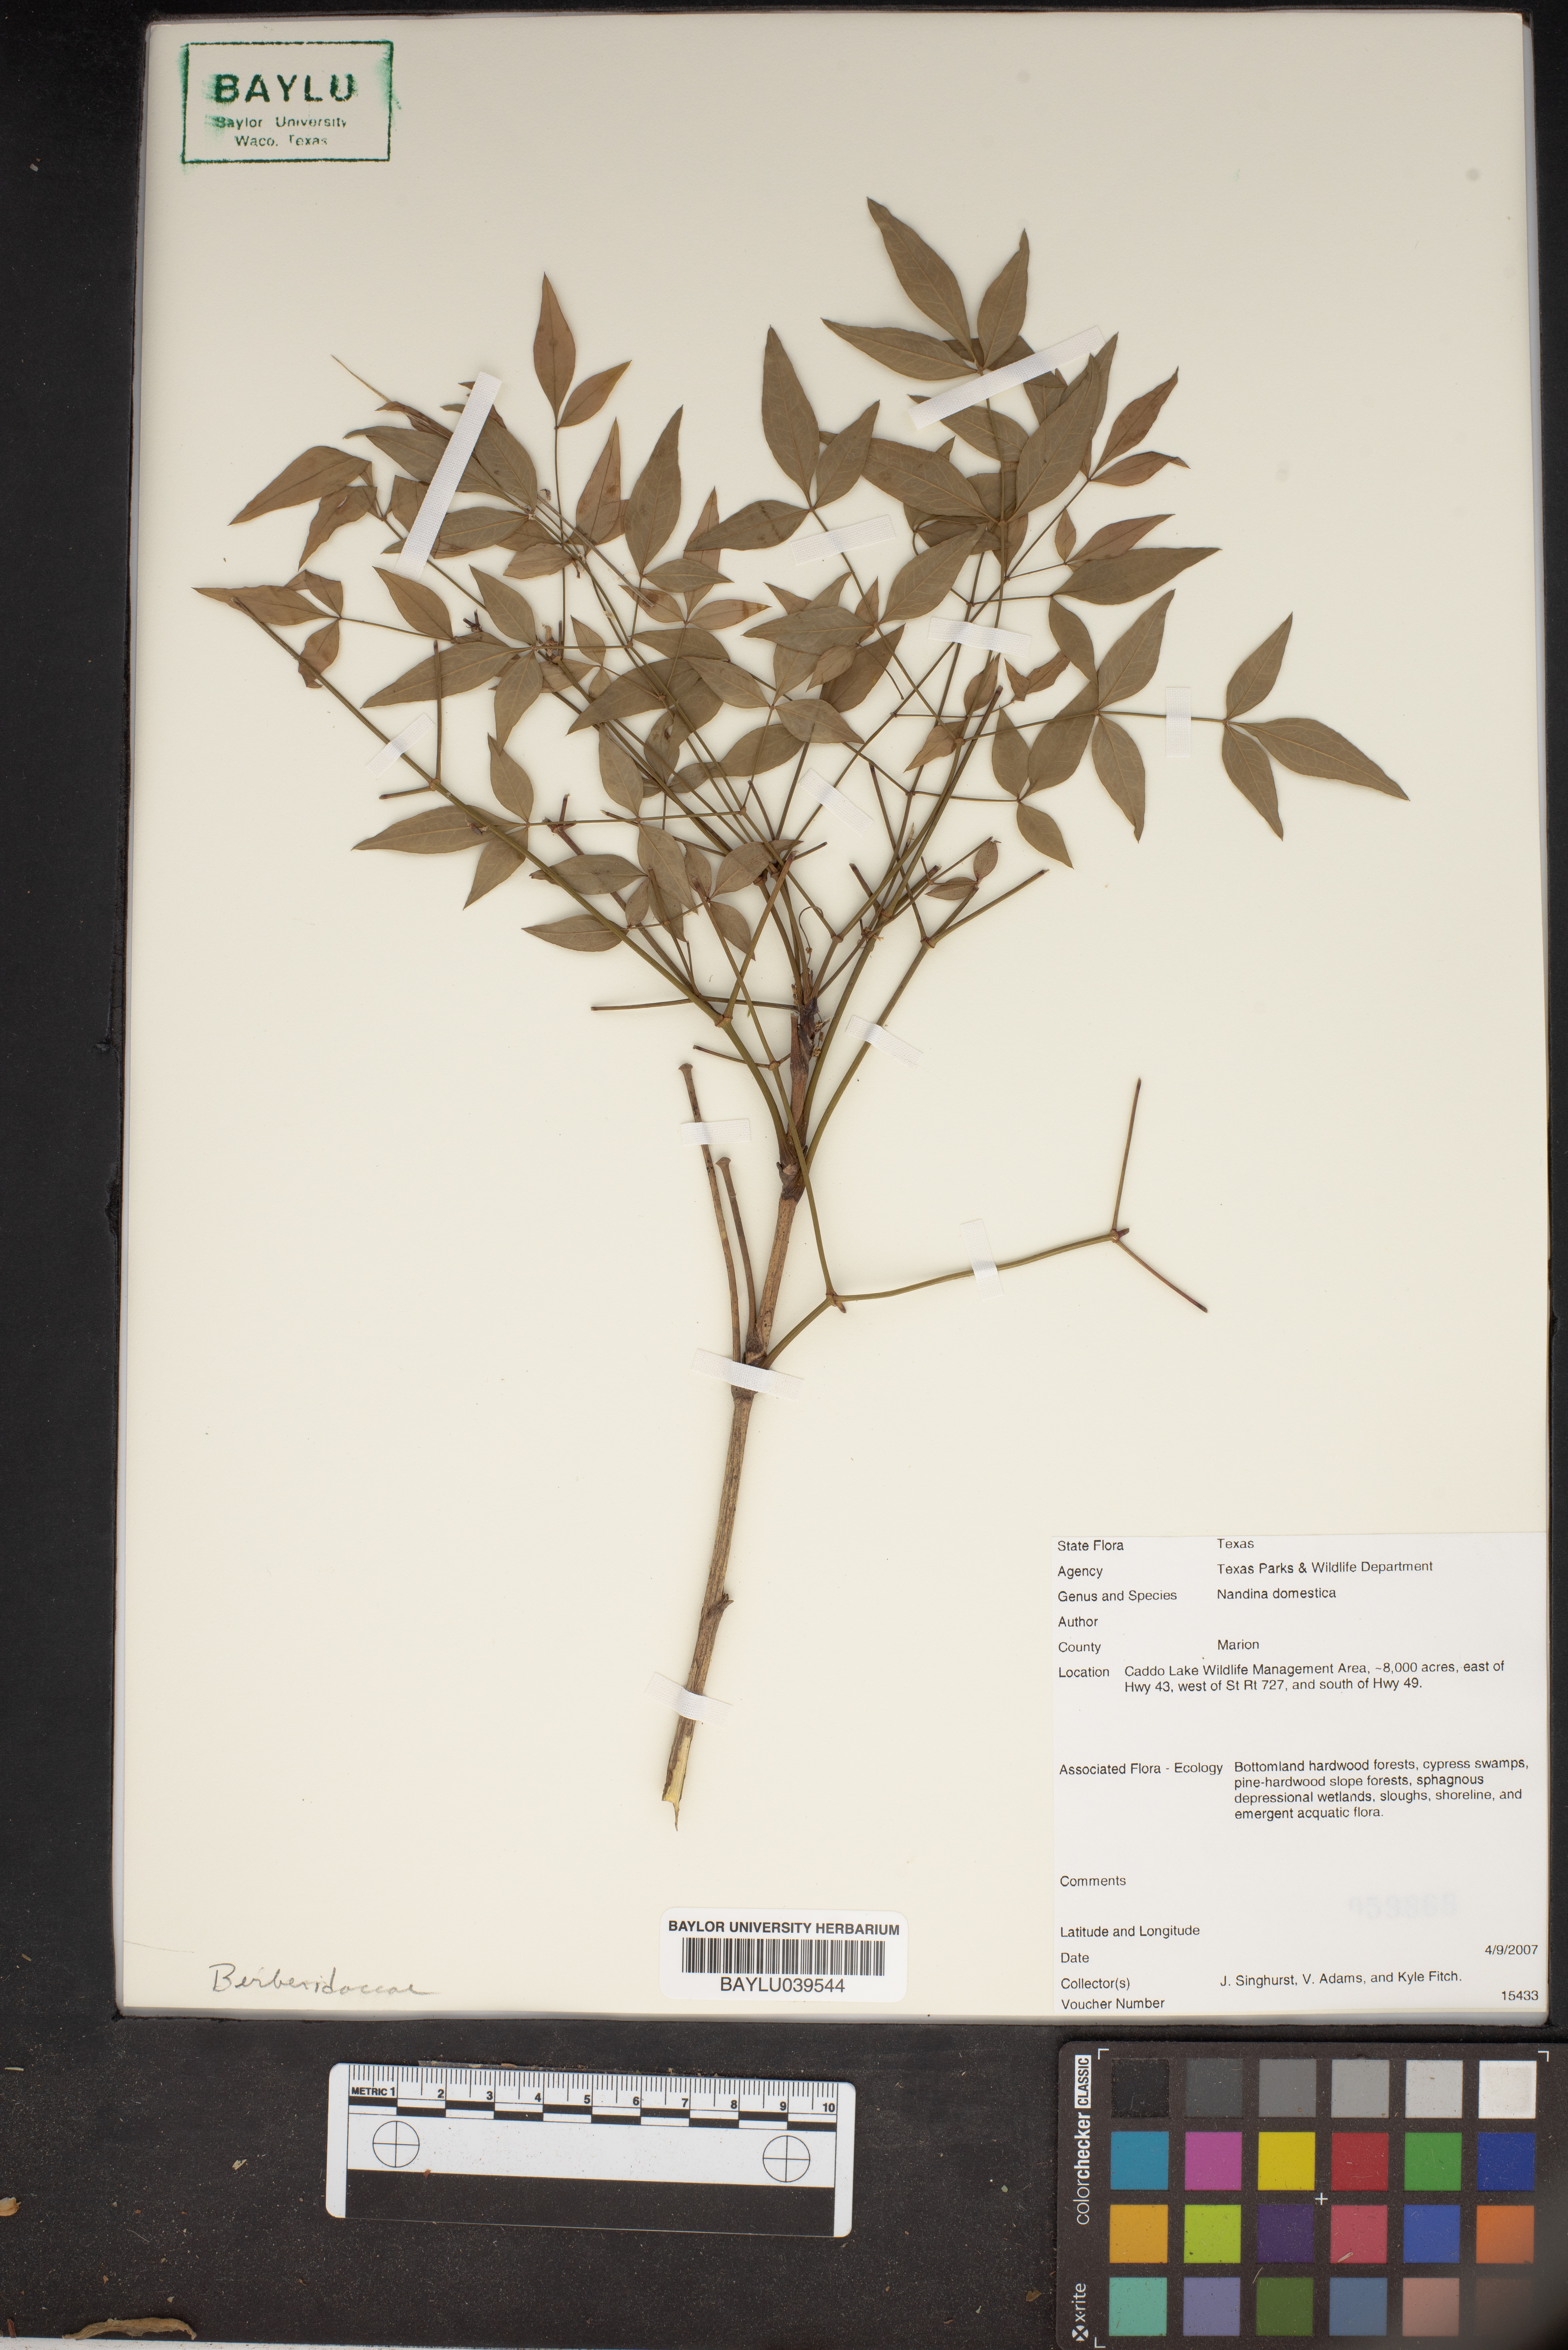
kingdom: Plantae
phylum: Tracheophyta
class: Magnoliopsida
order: Ranunculales
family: Berberidaceae
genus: Nandina
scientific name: Nandina domestica
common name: Sacred bamboo
